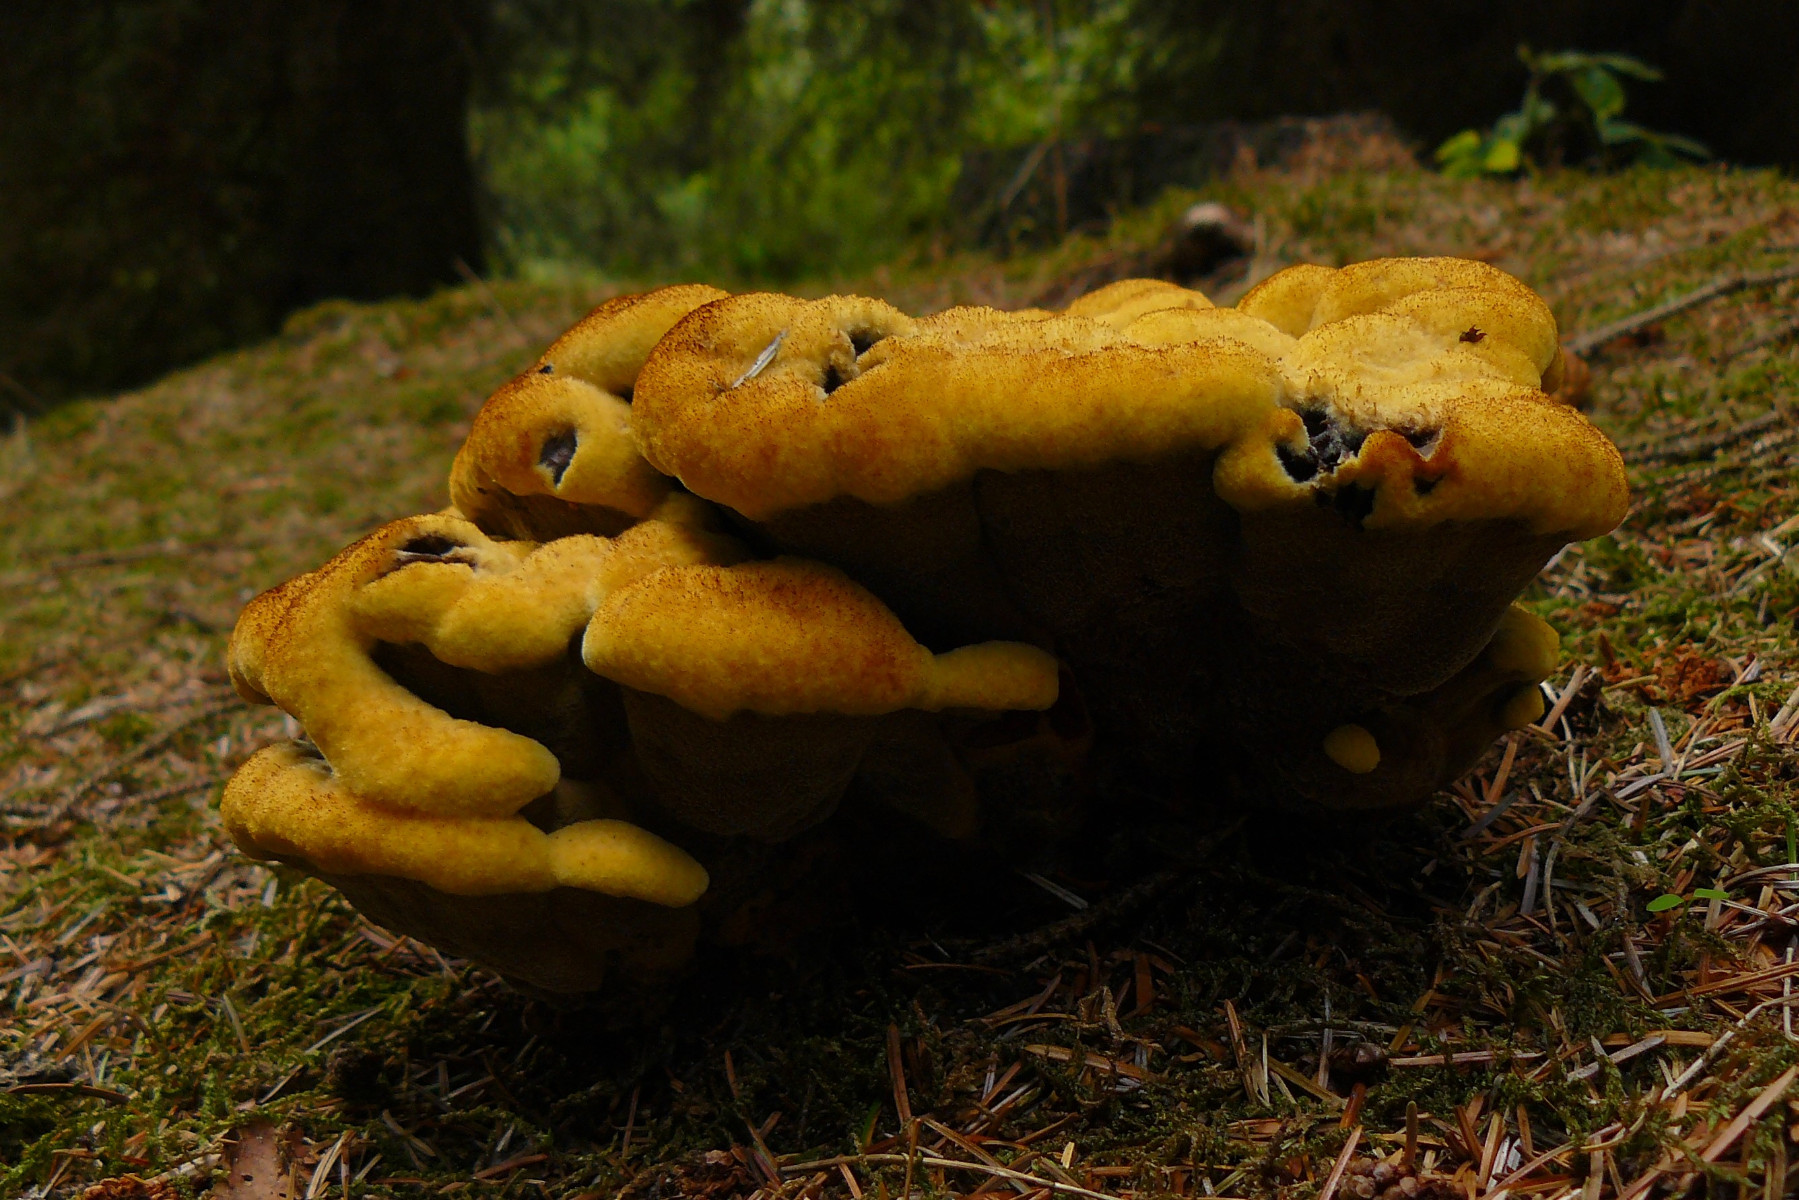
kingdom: Fungi
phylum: Basidiomycota
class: Agaricomycetes
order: Polyporales
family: Laetiporaceae
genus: Phaeolus
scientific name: Phaeolus schweinitzii
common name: brunporesvamp
